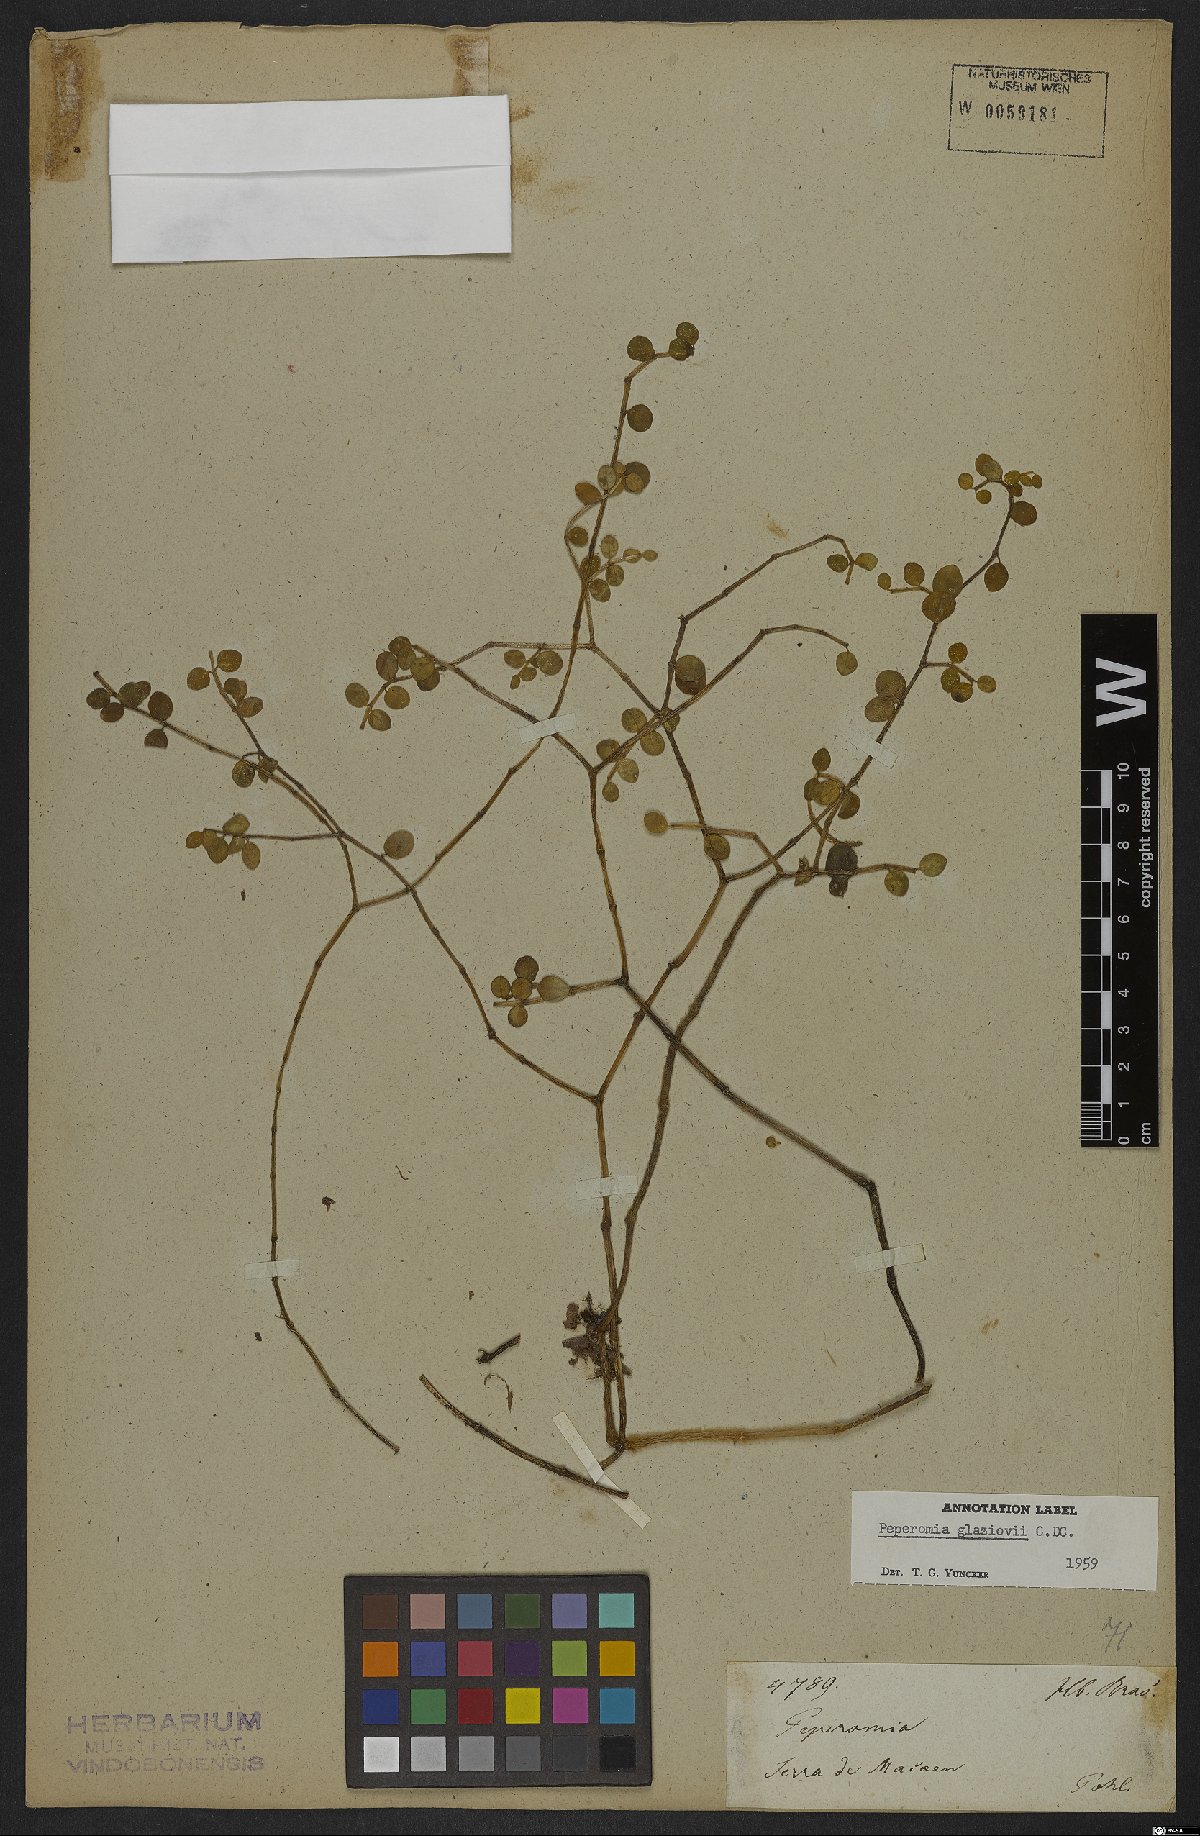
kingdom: Plantae
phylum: Tracheophyta
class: Magnoliopsida
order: Piperales
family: Piperaceae
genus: Peperomia
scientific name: Peperomia glaziovii
